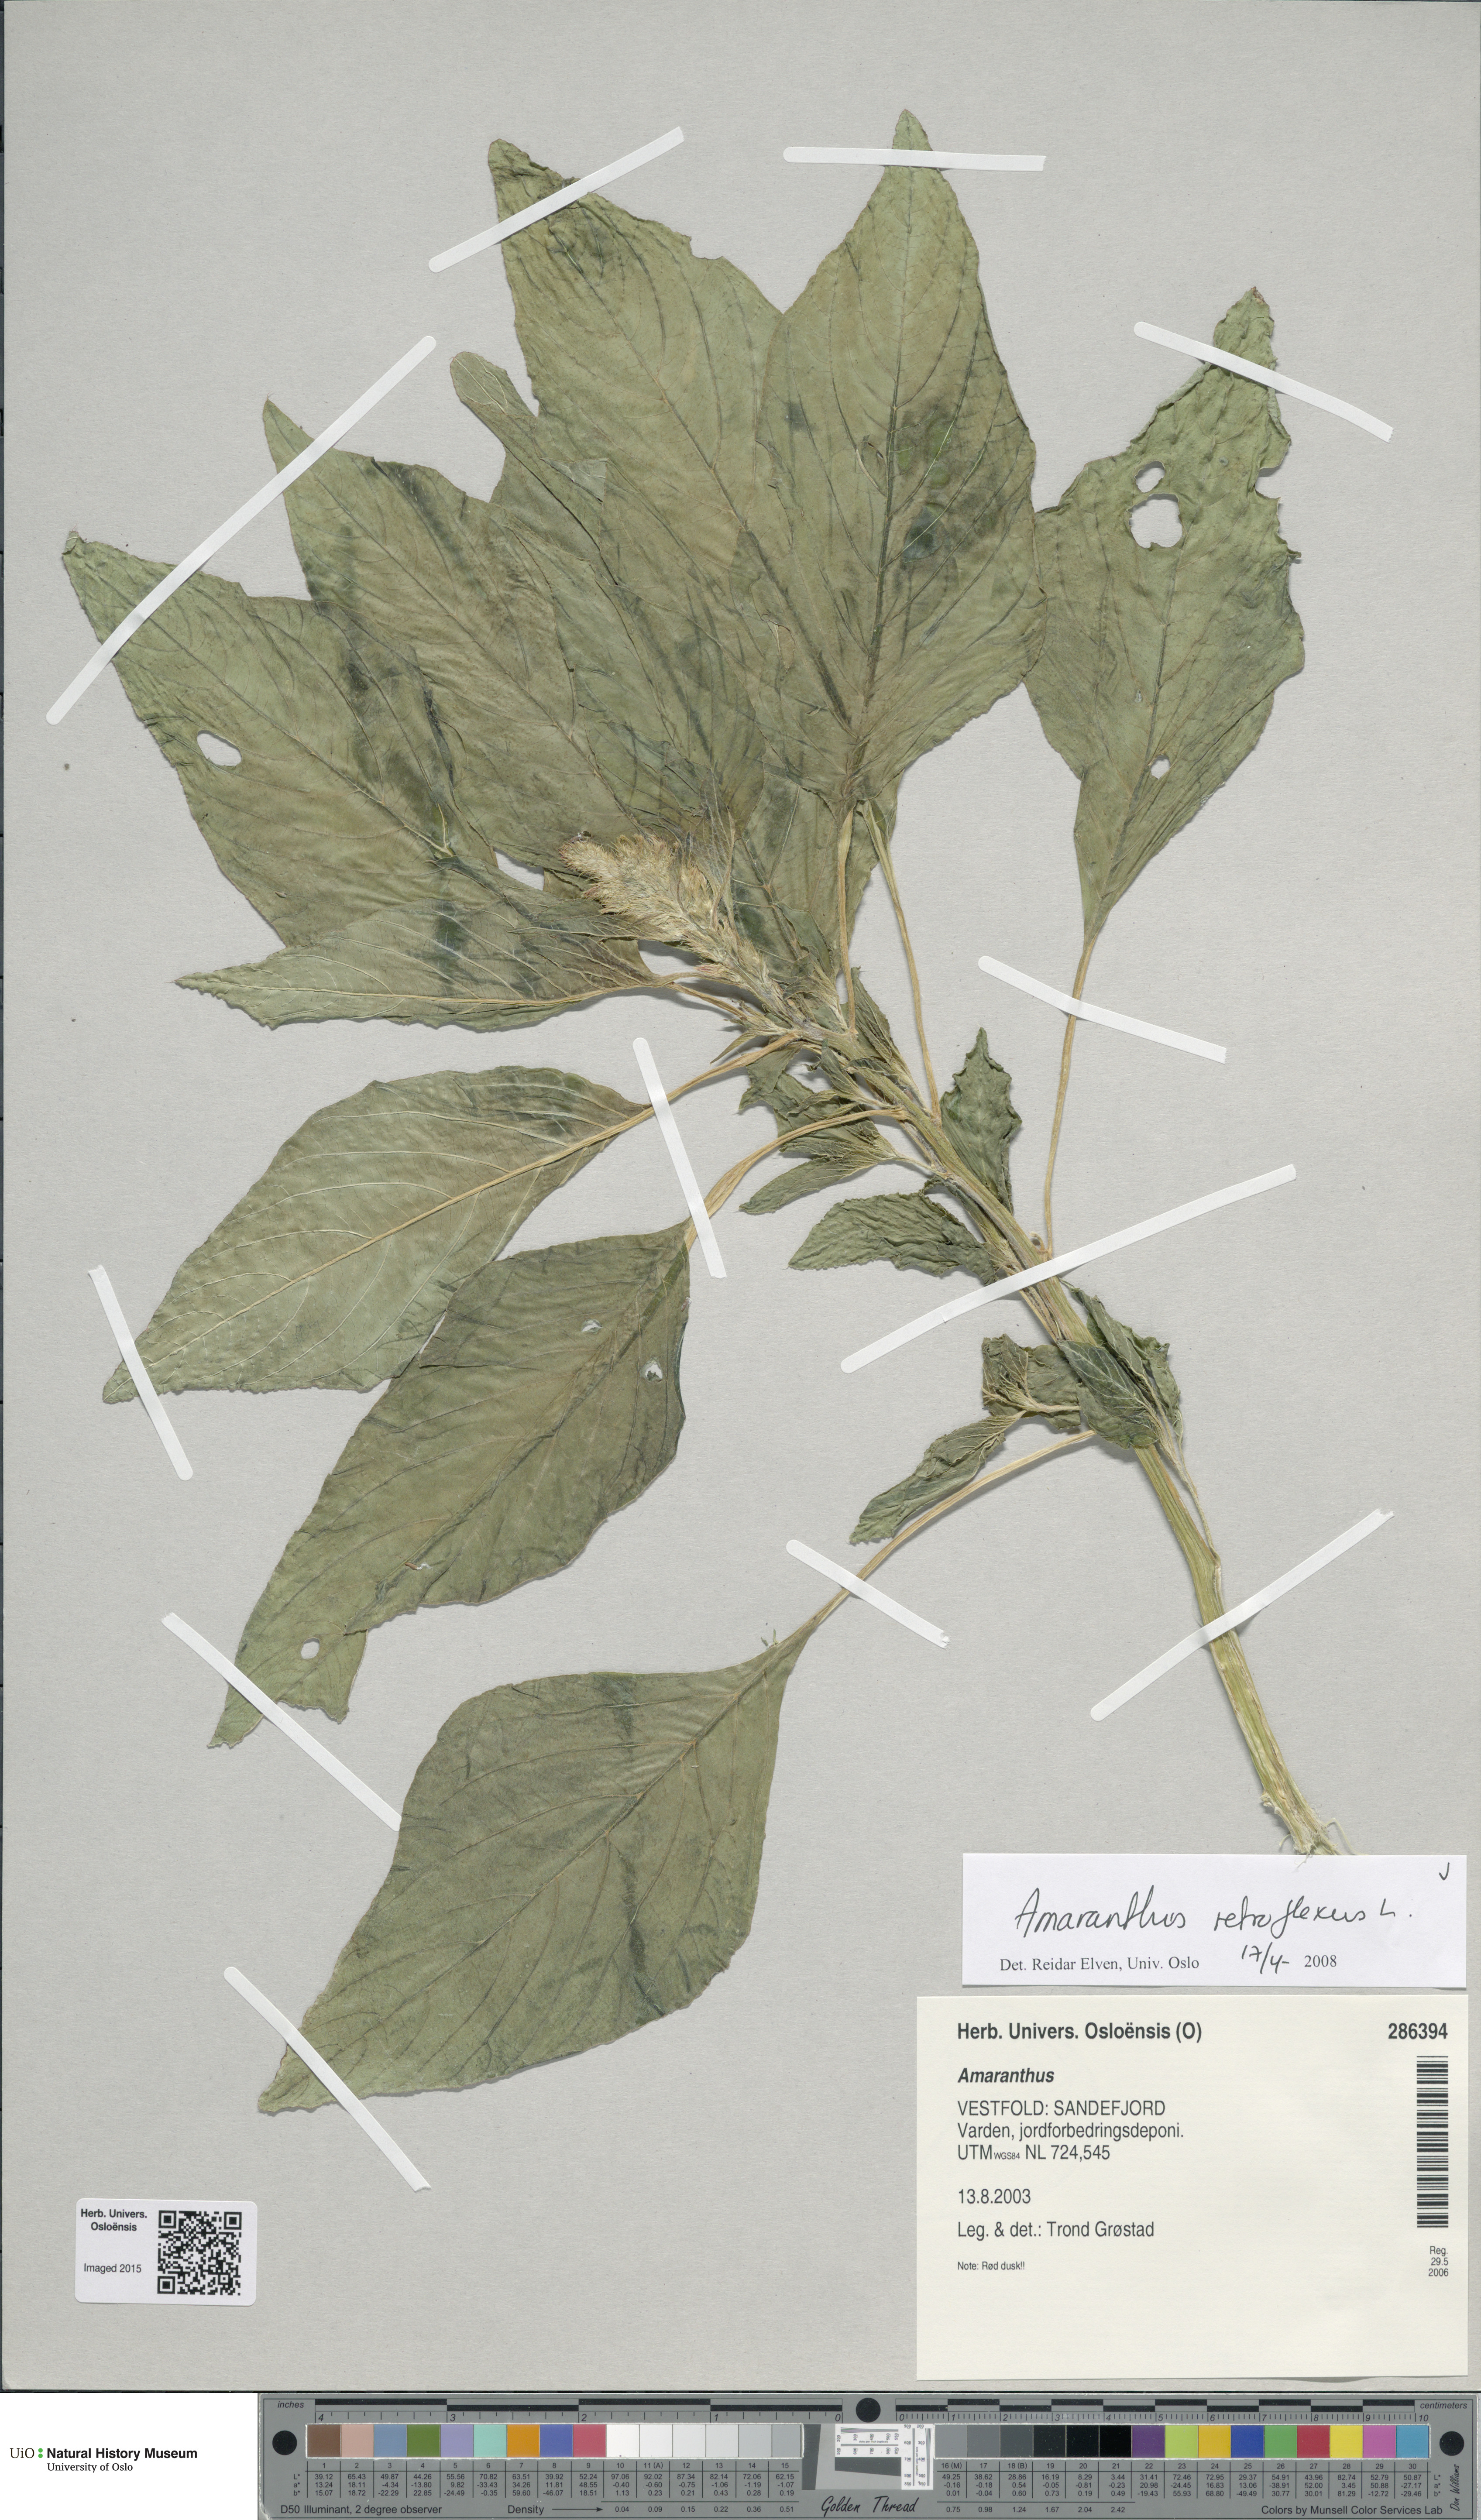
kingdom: Plantae
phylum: Tracheophyta
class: Magnoliopsida
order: Caryophyllales
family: Amaranthaceae
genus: Amaranthus
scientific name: Amaranthus retroflexus
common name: Redroot amaranth
